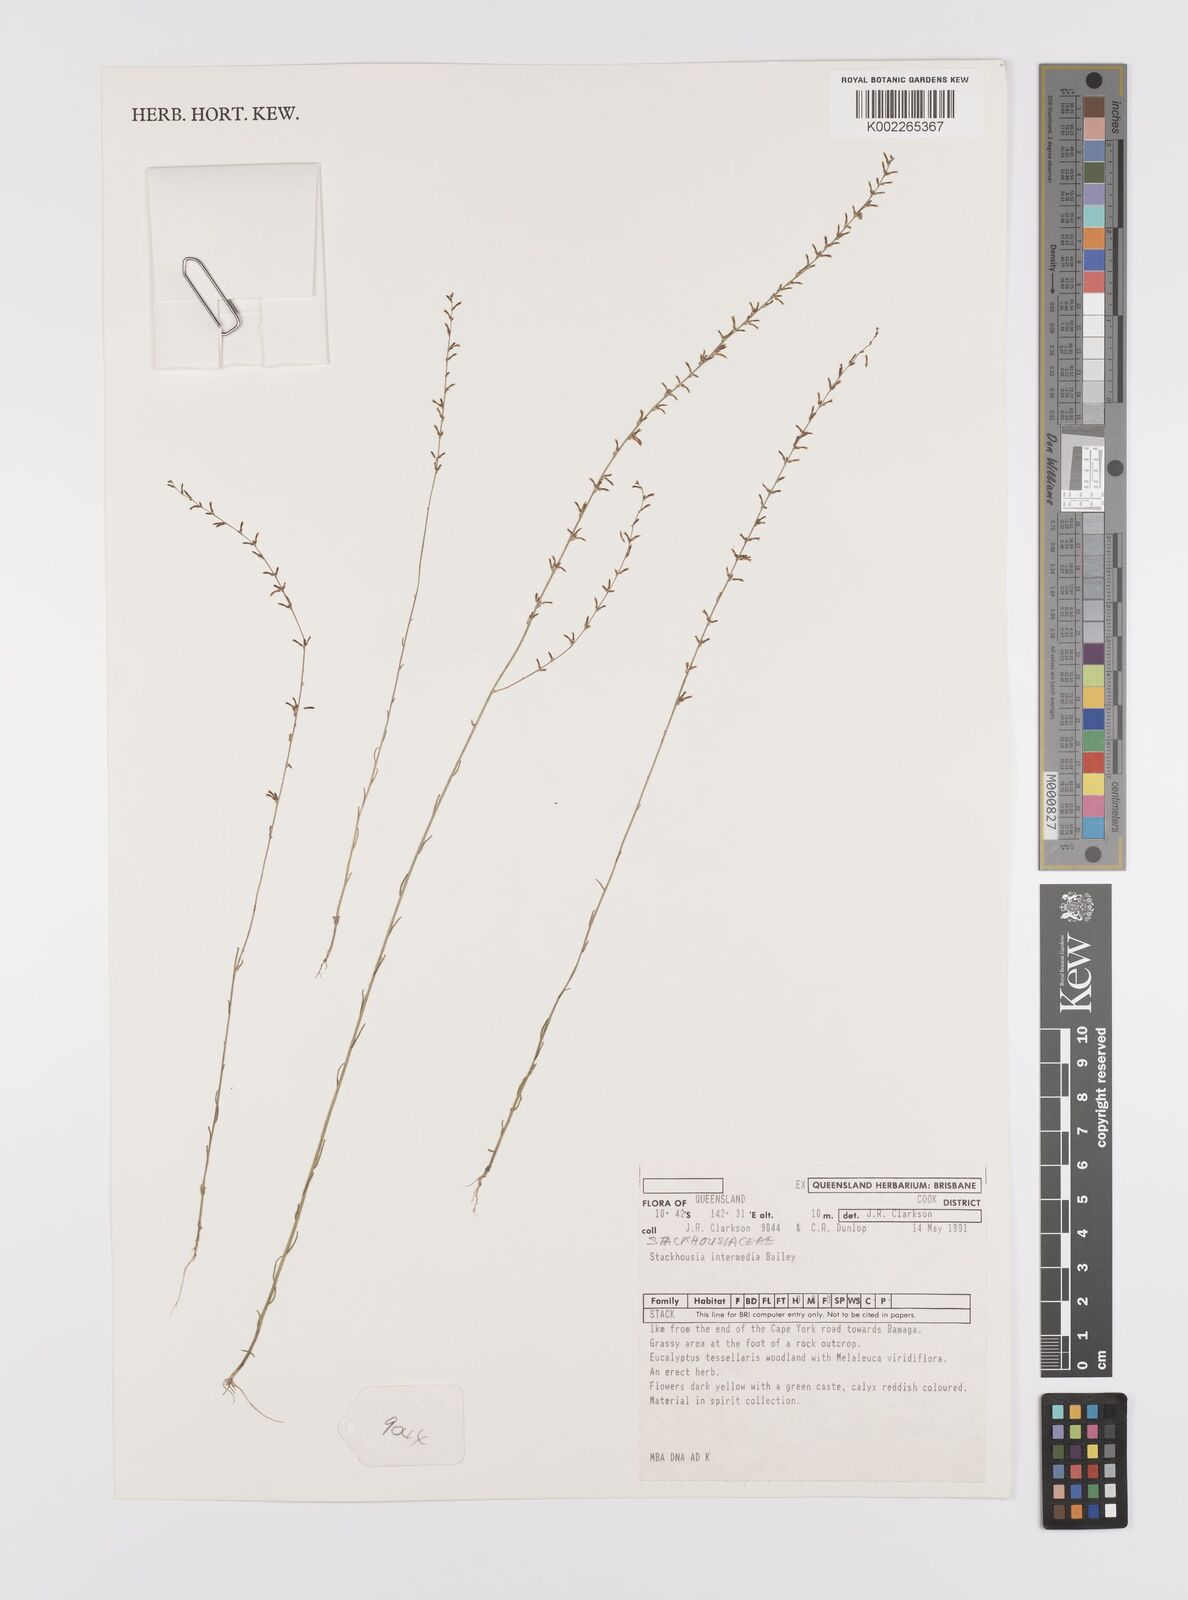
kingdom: Plantae
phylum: Tracheophyta
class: Magnoliopsida
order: Celastrales
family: Celastraceae
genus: Stackhousia
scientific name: Stackhousia intermedia
